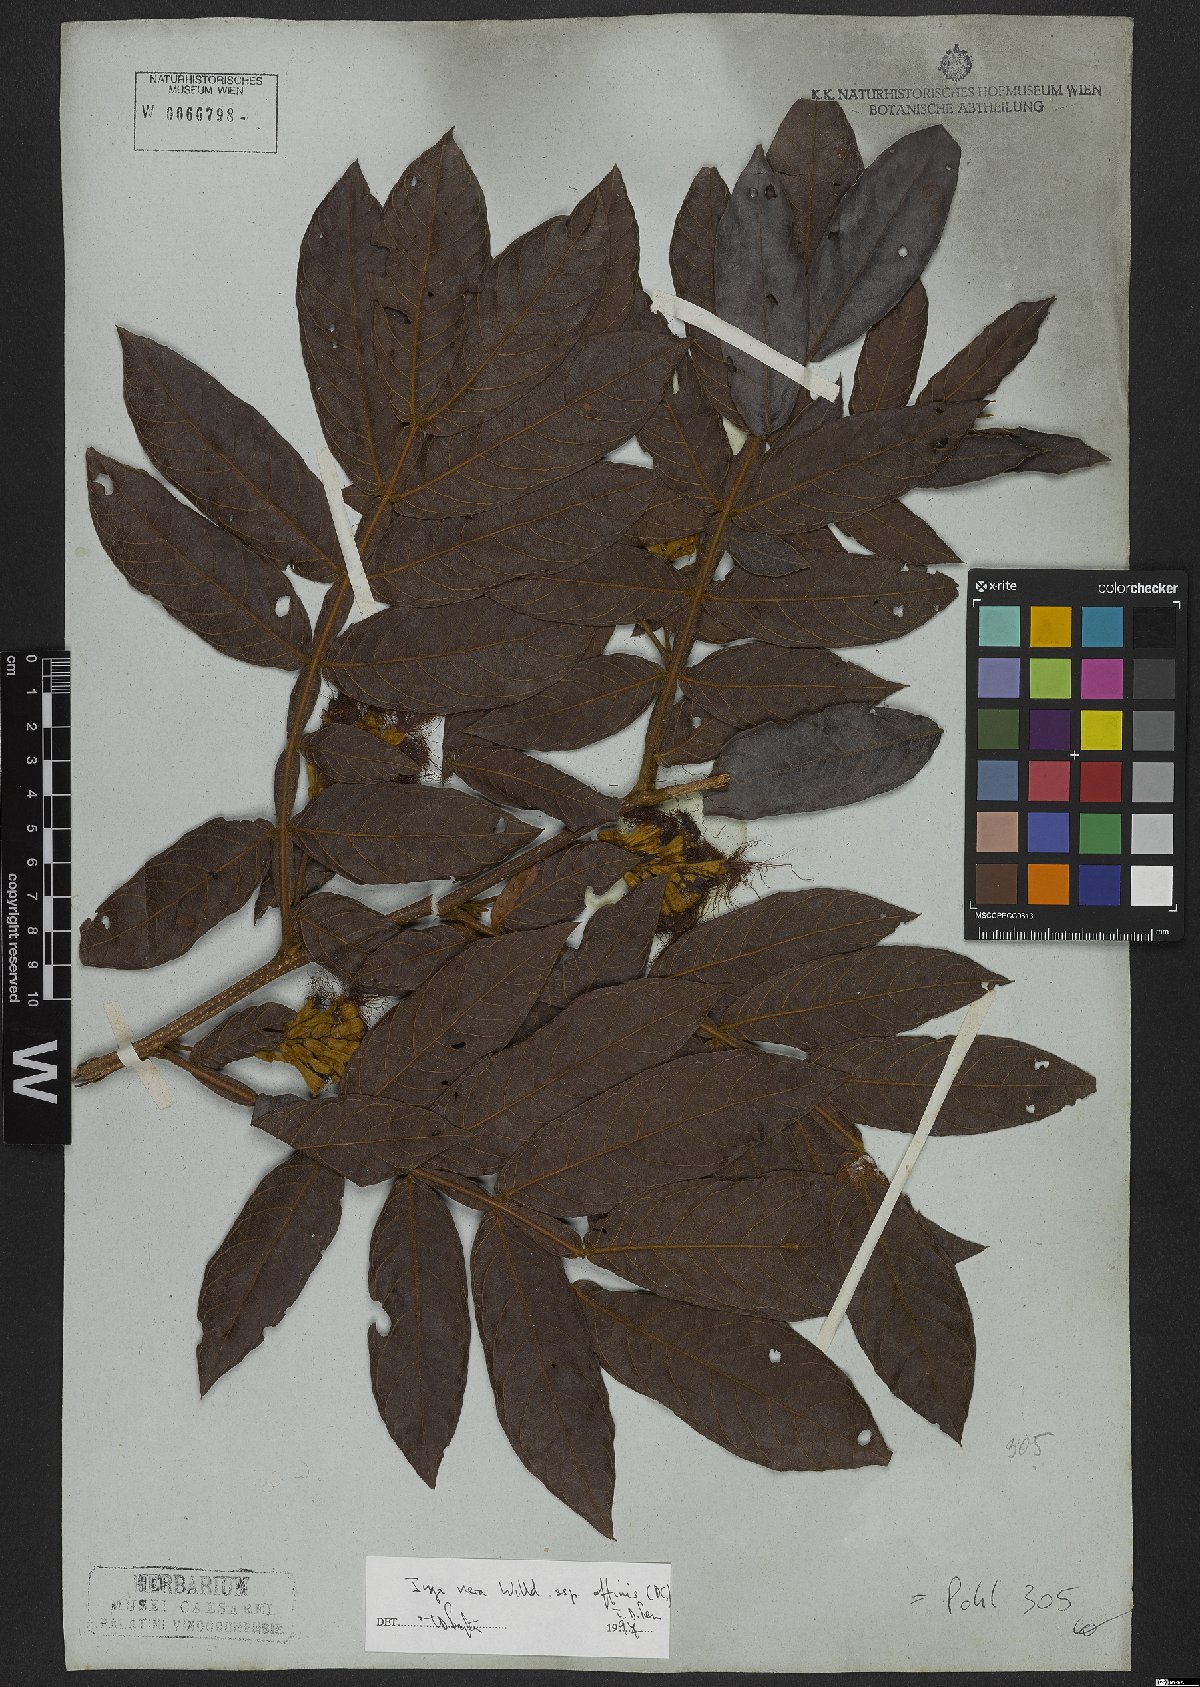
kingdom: Plantae
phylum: Tracheophyta
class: Magnoliopsida
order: Fabales
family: Fabaceae
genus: Inga
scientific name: Inga affinis
